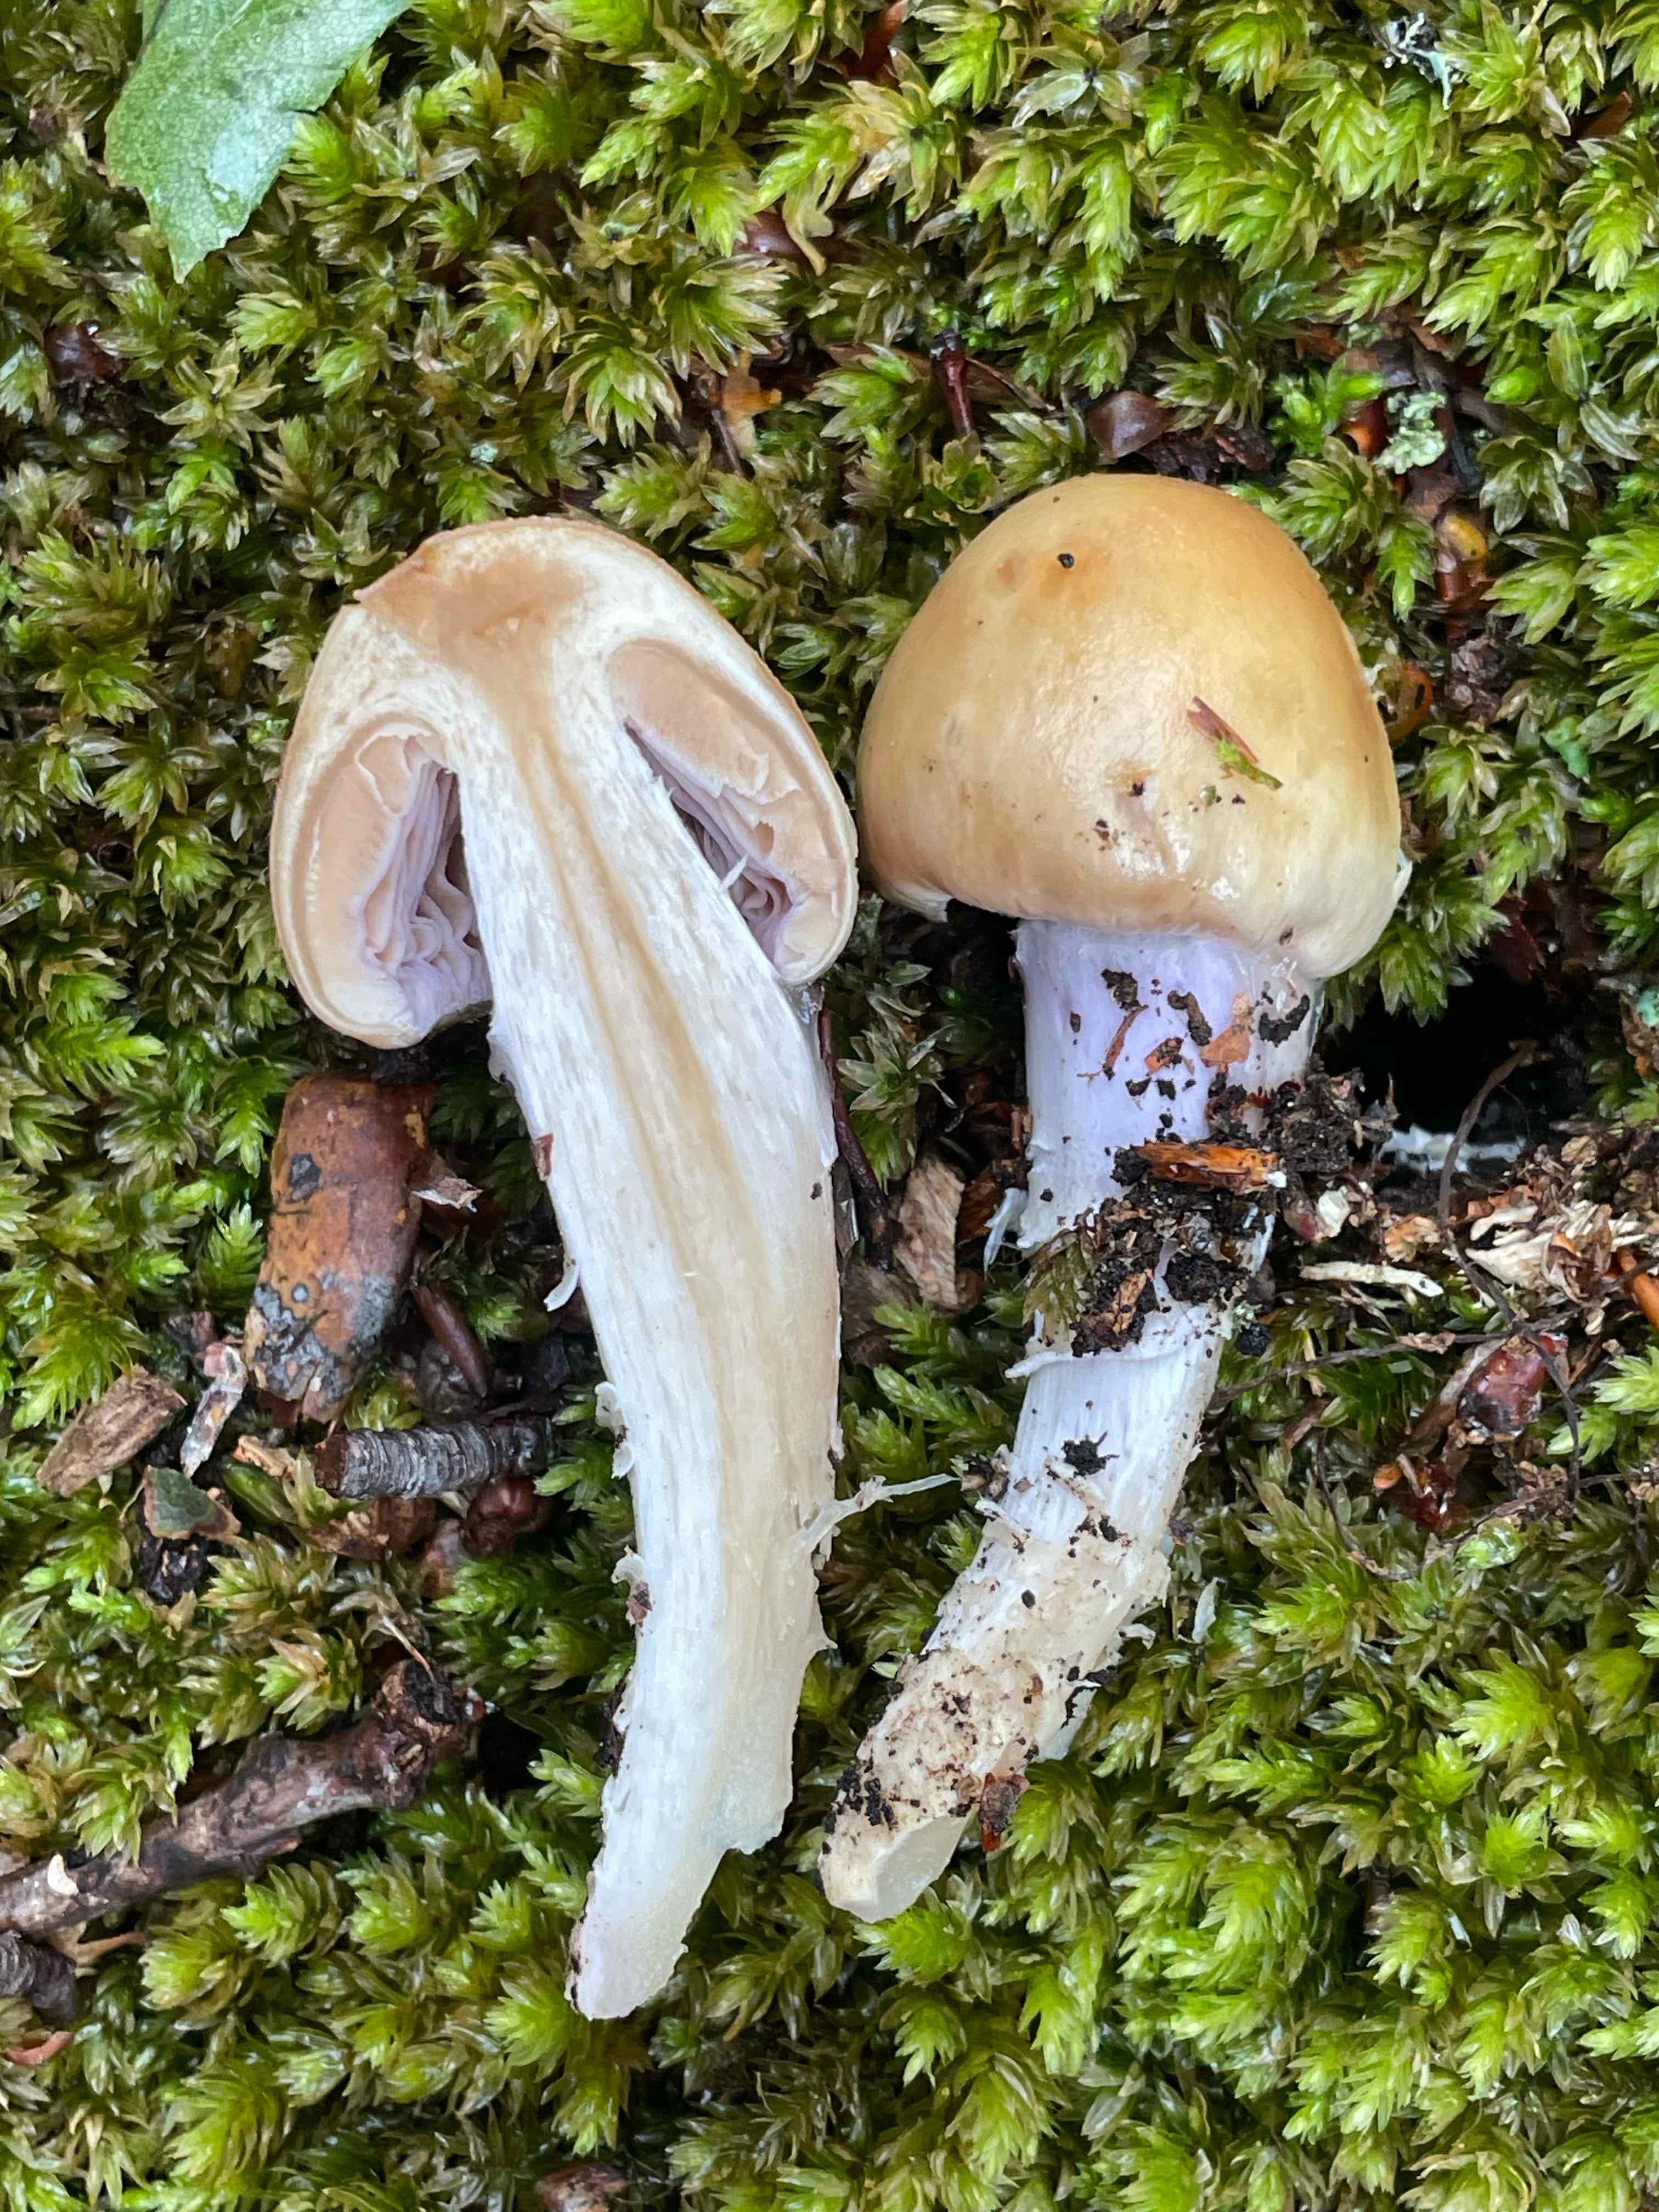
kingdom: Fungi
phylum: Basidiomycota
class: Agaricomycetes
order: Agaricales
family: Cortinariaceae
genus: Cortinarius
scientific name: Cortinarius
